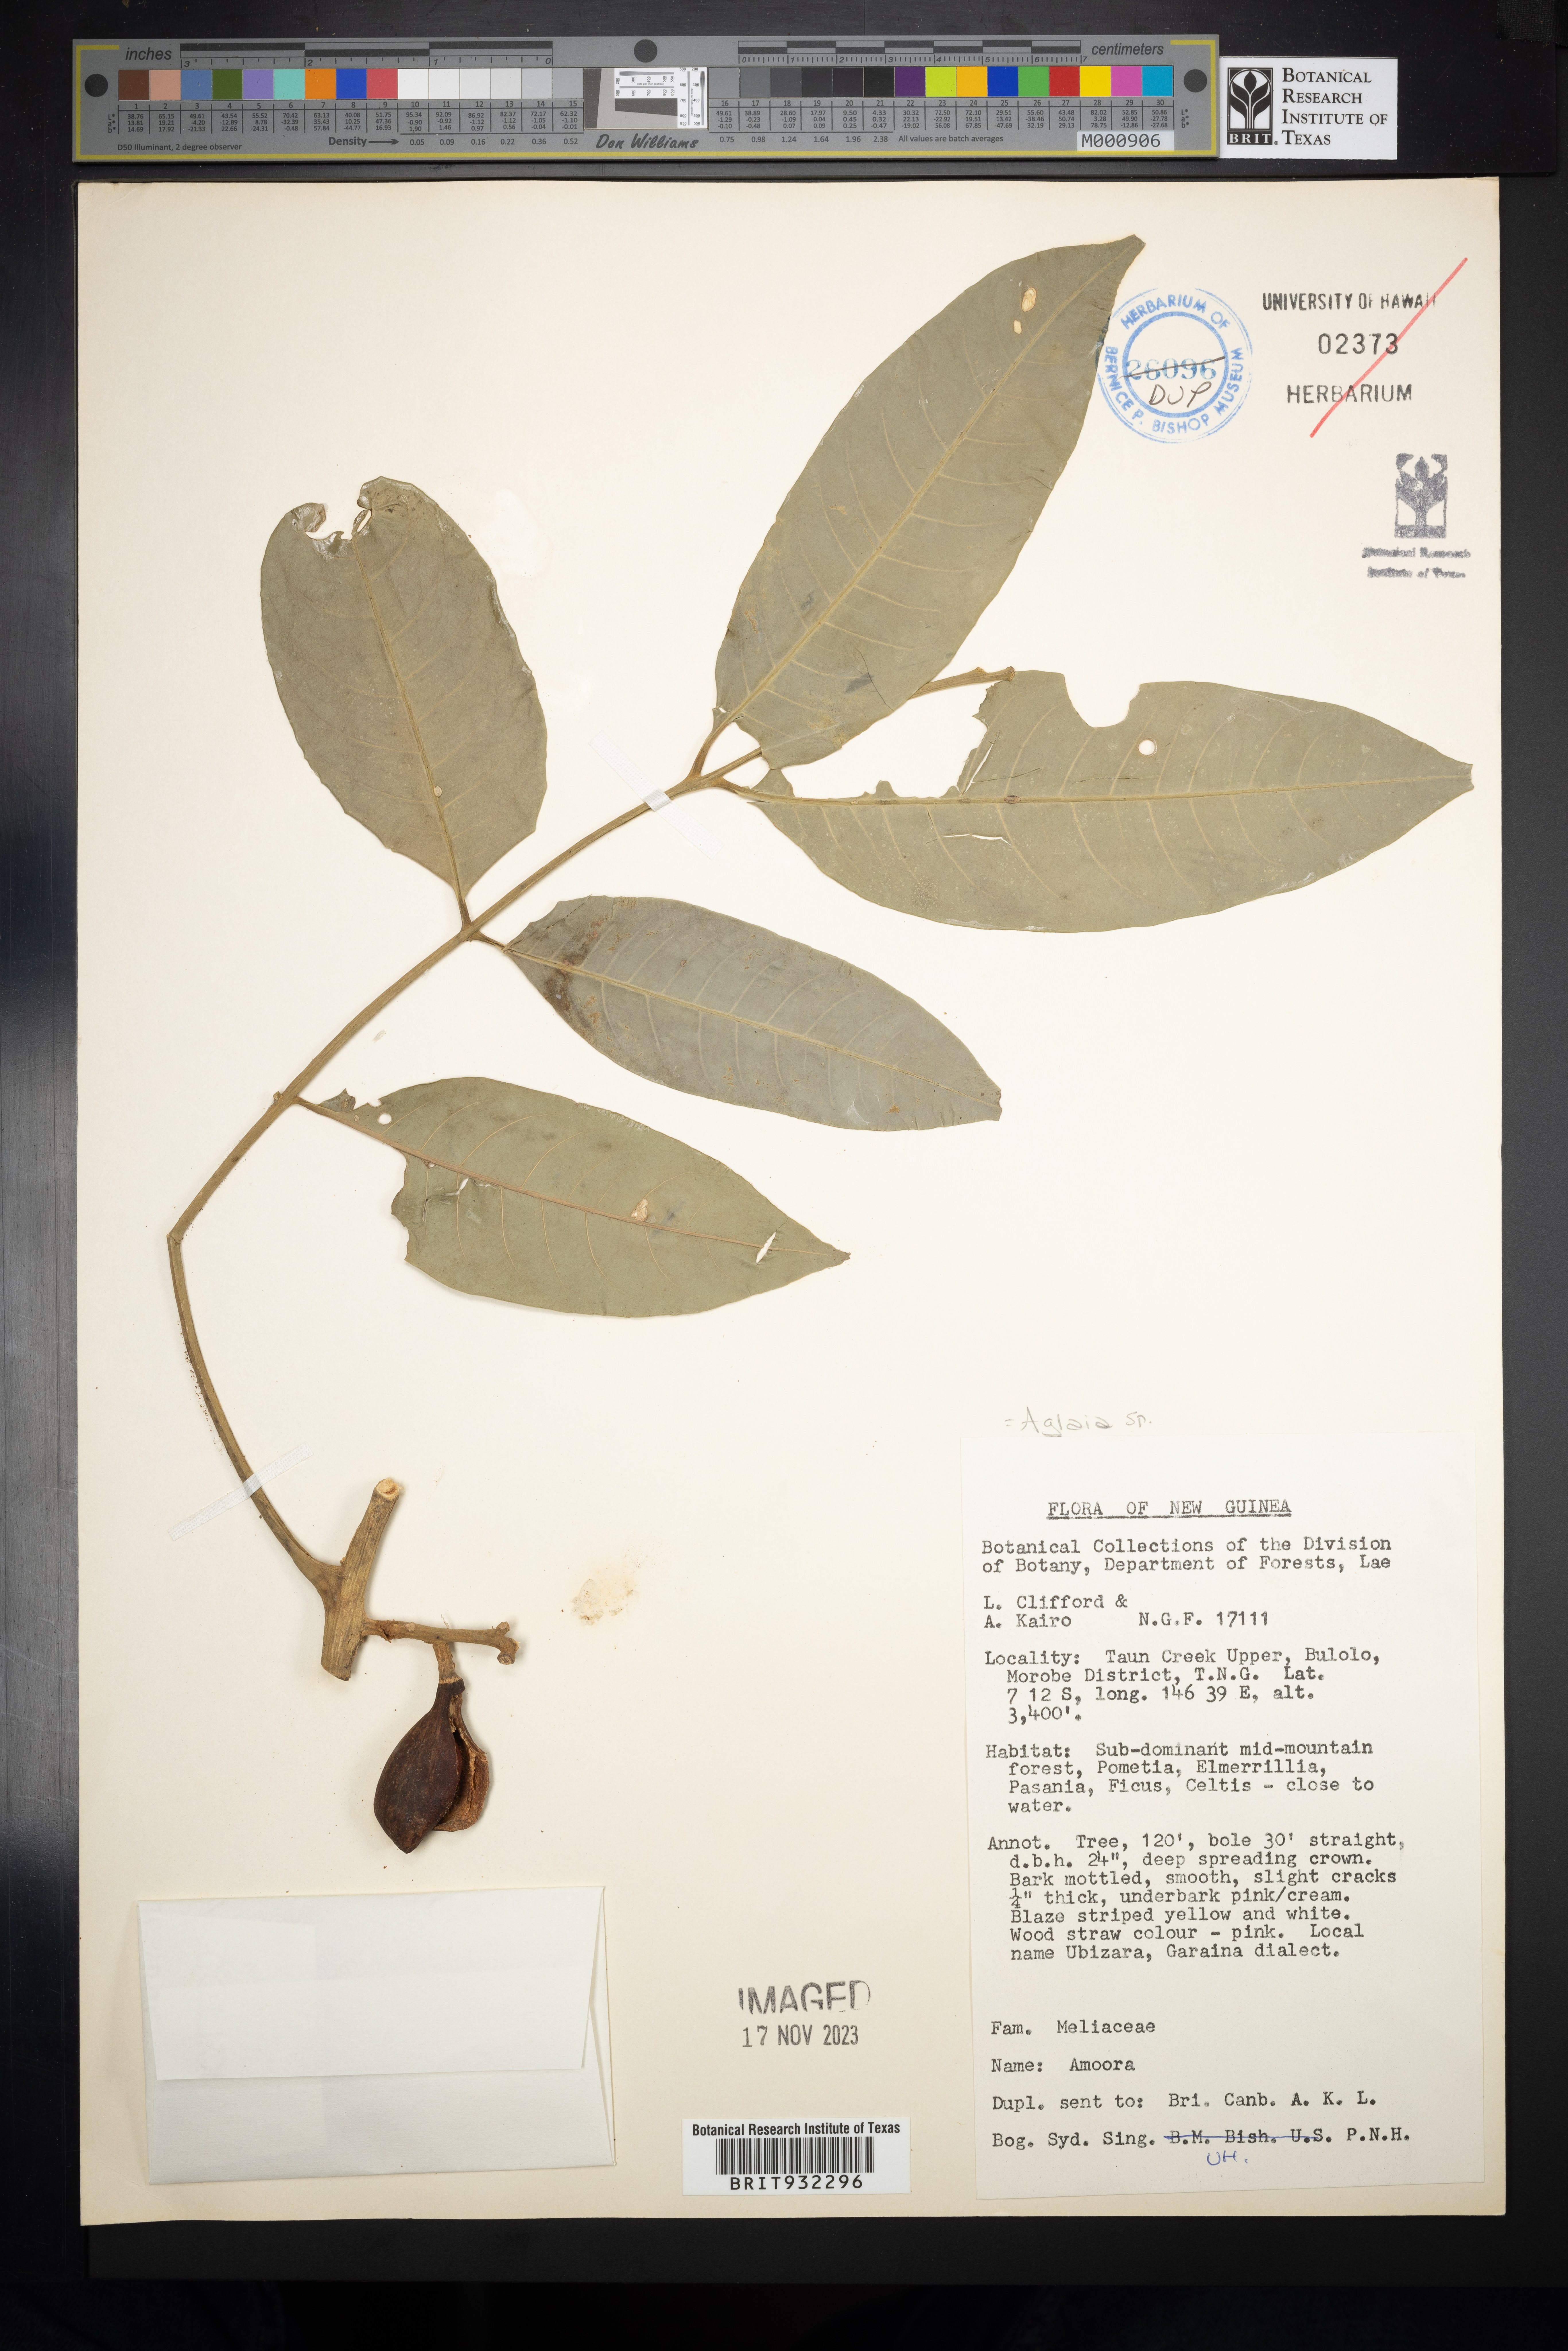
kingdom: Plantae
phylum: Tracheophyta
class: Magnoliopsida
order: Sapindales
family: Meliaceae
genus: Aglaia
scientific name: Aglaia
